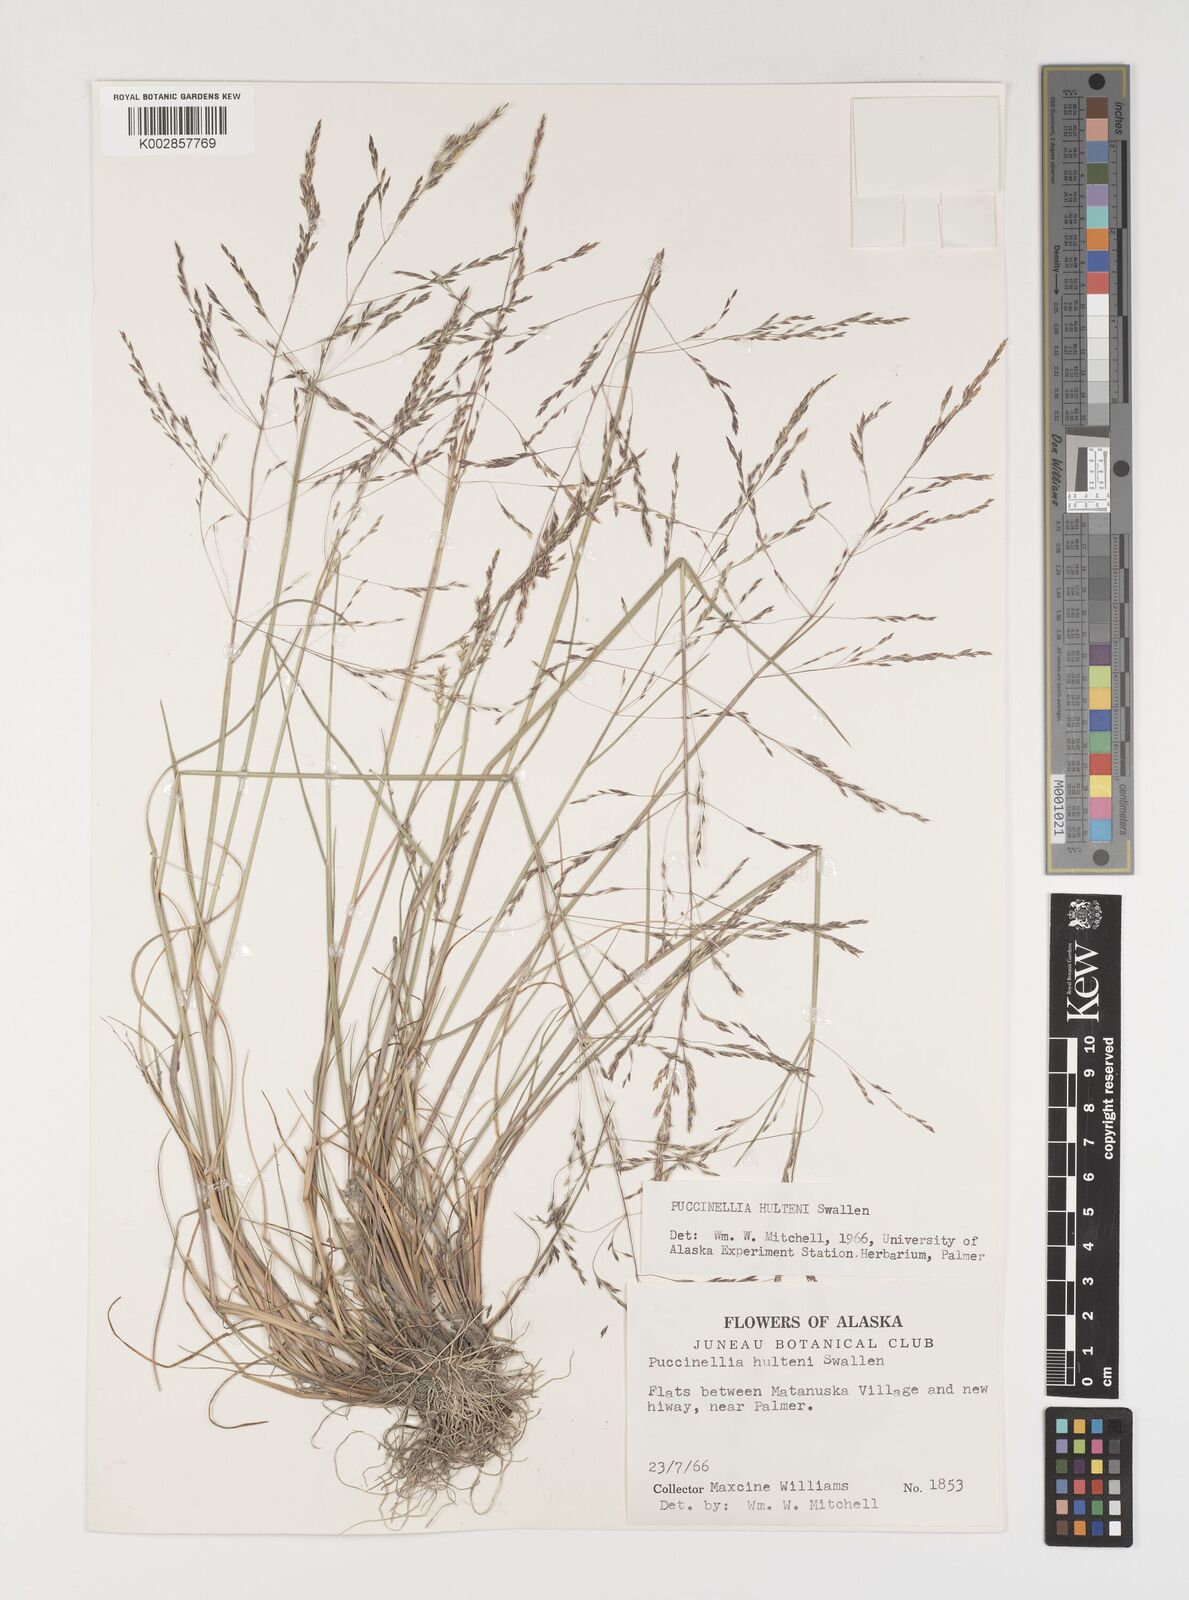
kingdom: Plantae
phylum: Tracheophyta
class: Liliopsida
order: Poales
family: Poaceae
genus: Puccinellia
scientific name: Puccinellia pumila
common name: Dwarf alkaligrass
